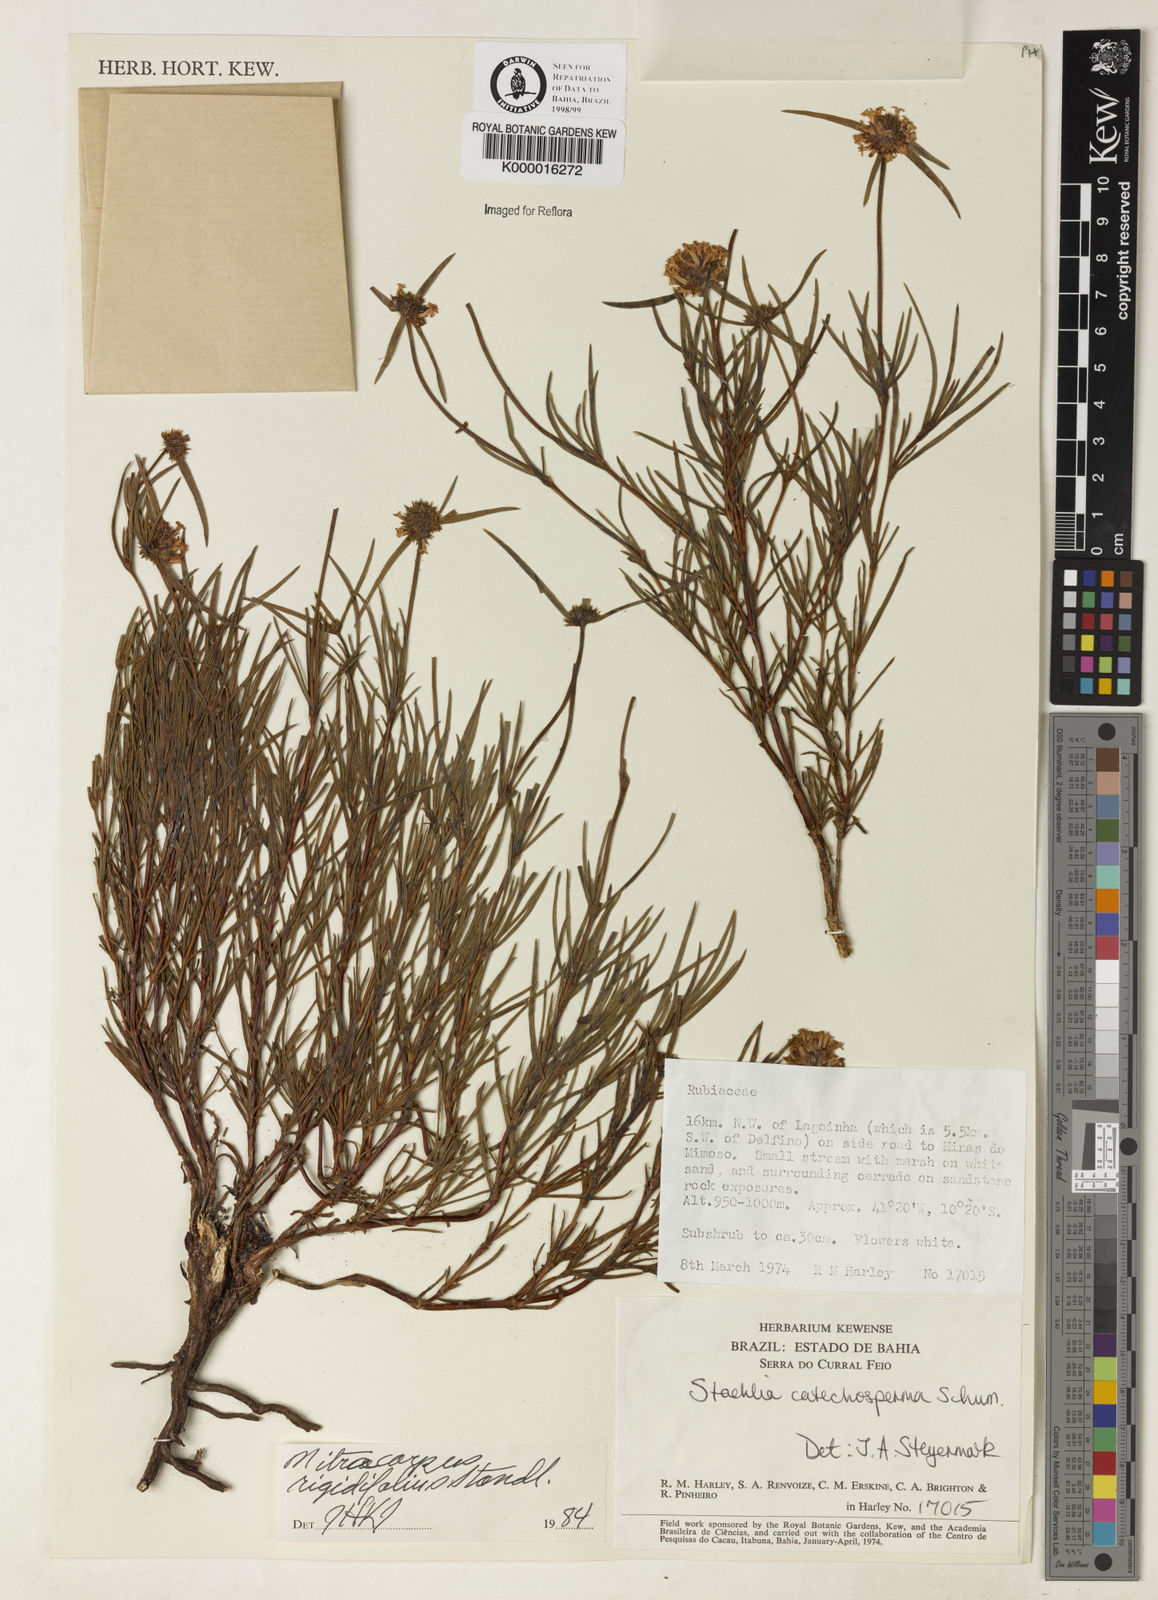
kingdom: Plantae
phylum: Tracheophyta
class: Magnoliopsida
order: Gentianales
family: Rubiaceae
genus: Mitracarpus
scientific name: Mitracarpus rigidifolius
